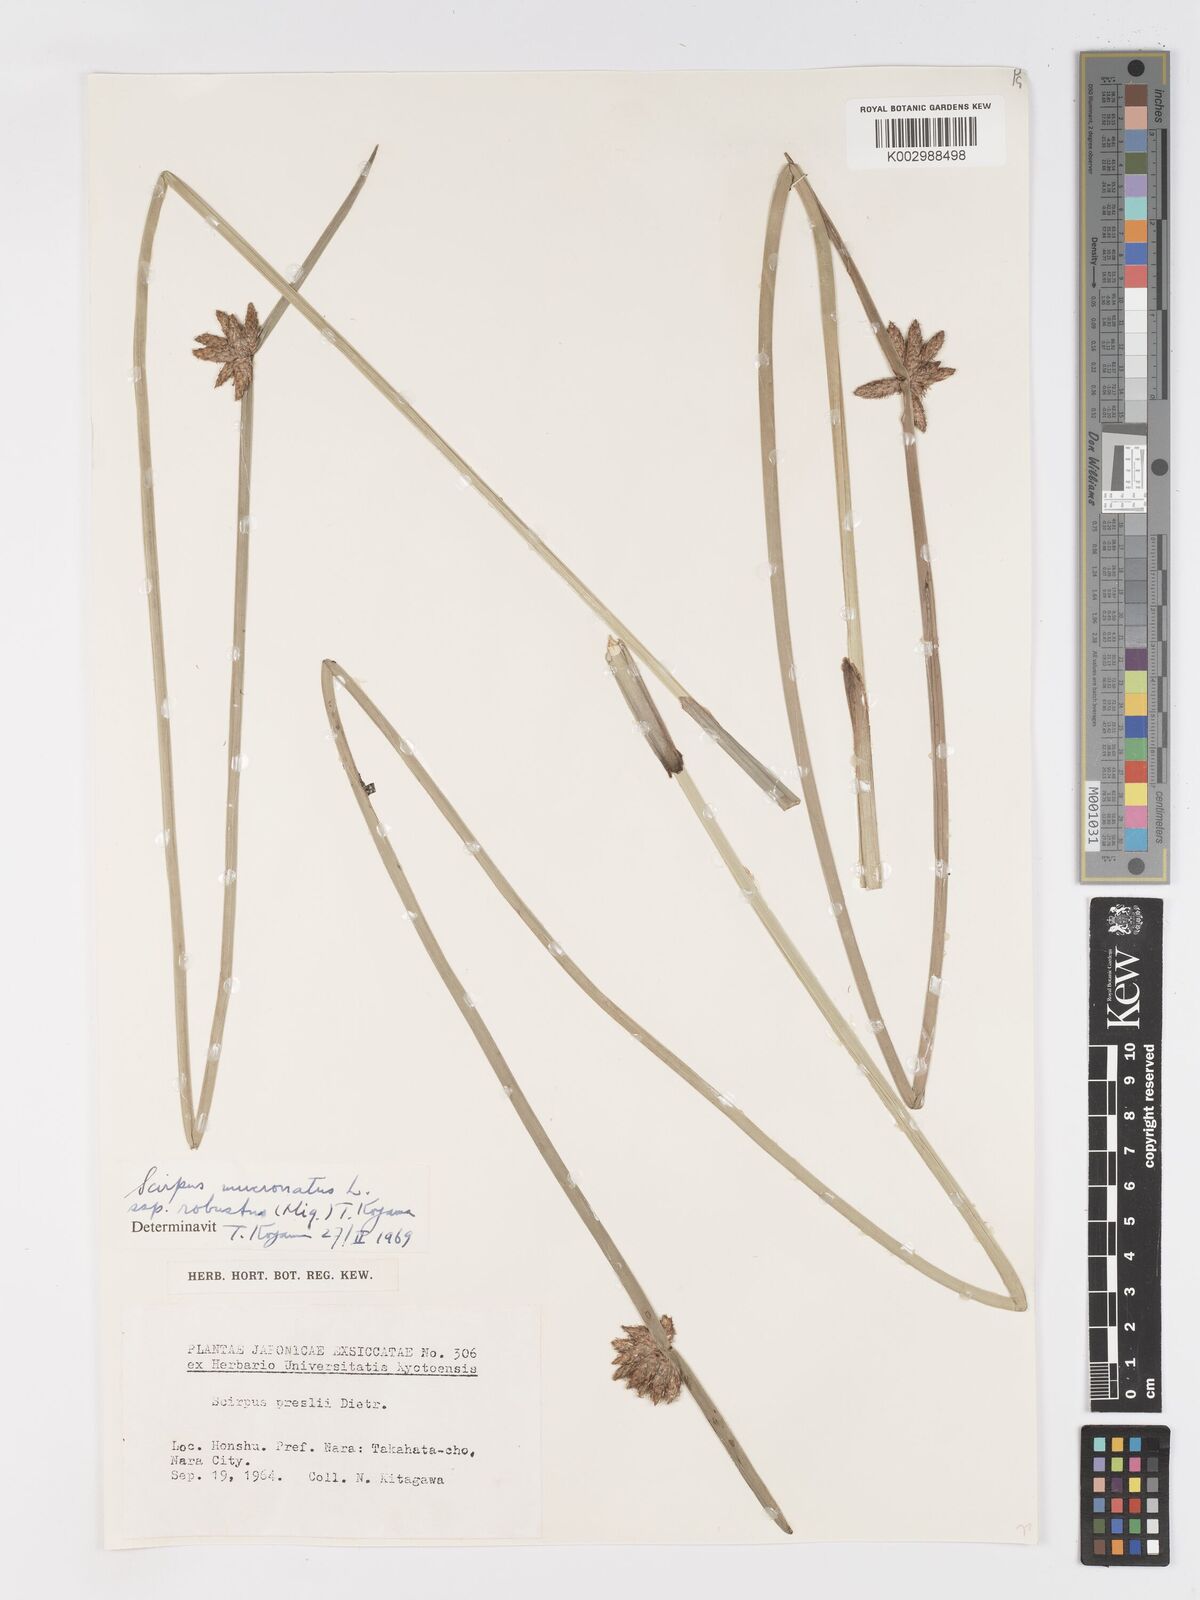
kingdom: Plantae
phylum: Tracheophyta
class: Liliopsida
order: Poales
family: Cyperaceae
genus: Schoenoplectiella
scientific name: Schoenoplectiella triangulata
